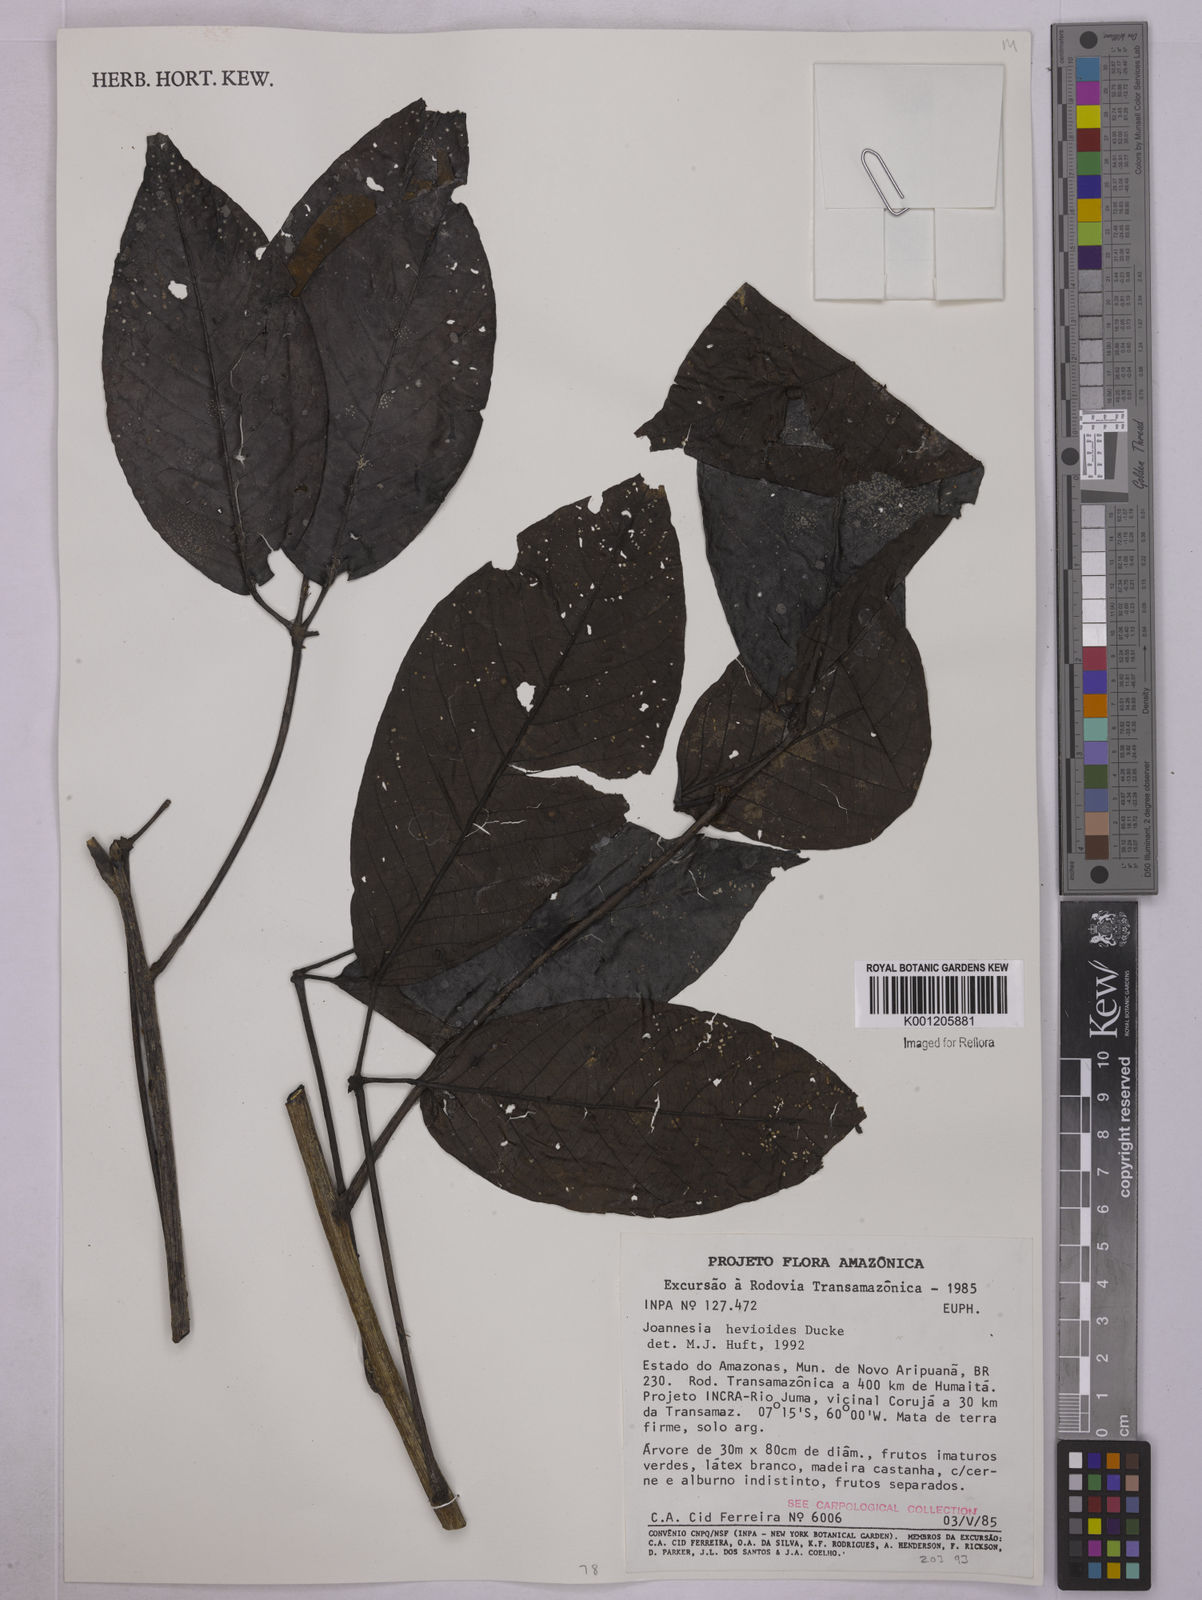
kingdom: Plantae
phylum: Tracheophyta
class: Magnoliopsida
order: Malpighiales
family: Euphorbiaceae
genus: Joannesia
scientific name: Joannesia heveoides
